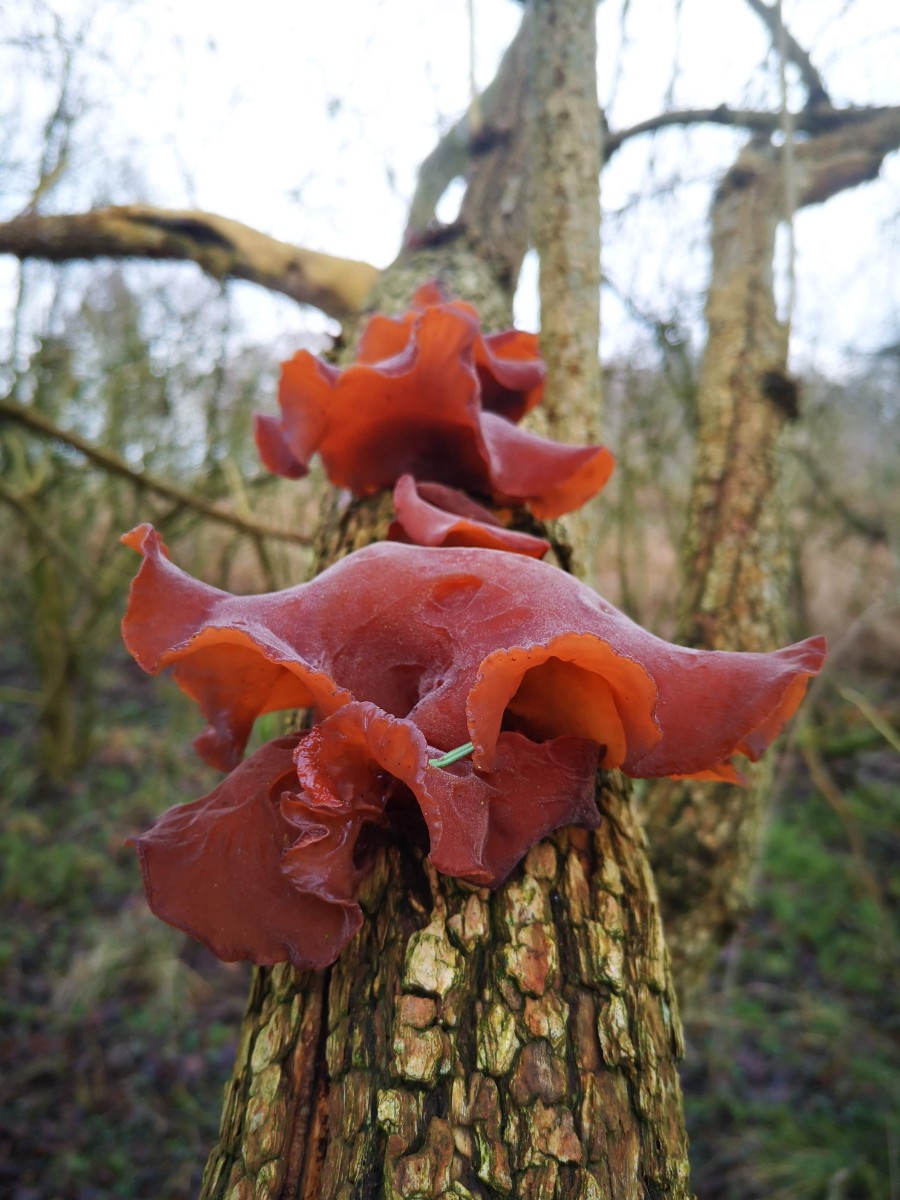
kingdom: Fungi
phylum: Basidiomycota
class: Agaricomycetes
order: Auriculariales
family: Auriculariaceae
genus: Auricularia
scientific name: Auricularia auricula-judae
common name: almindelig judasøre
